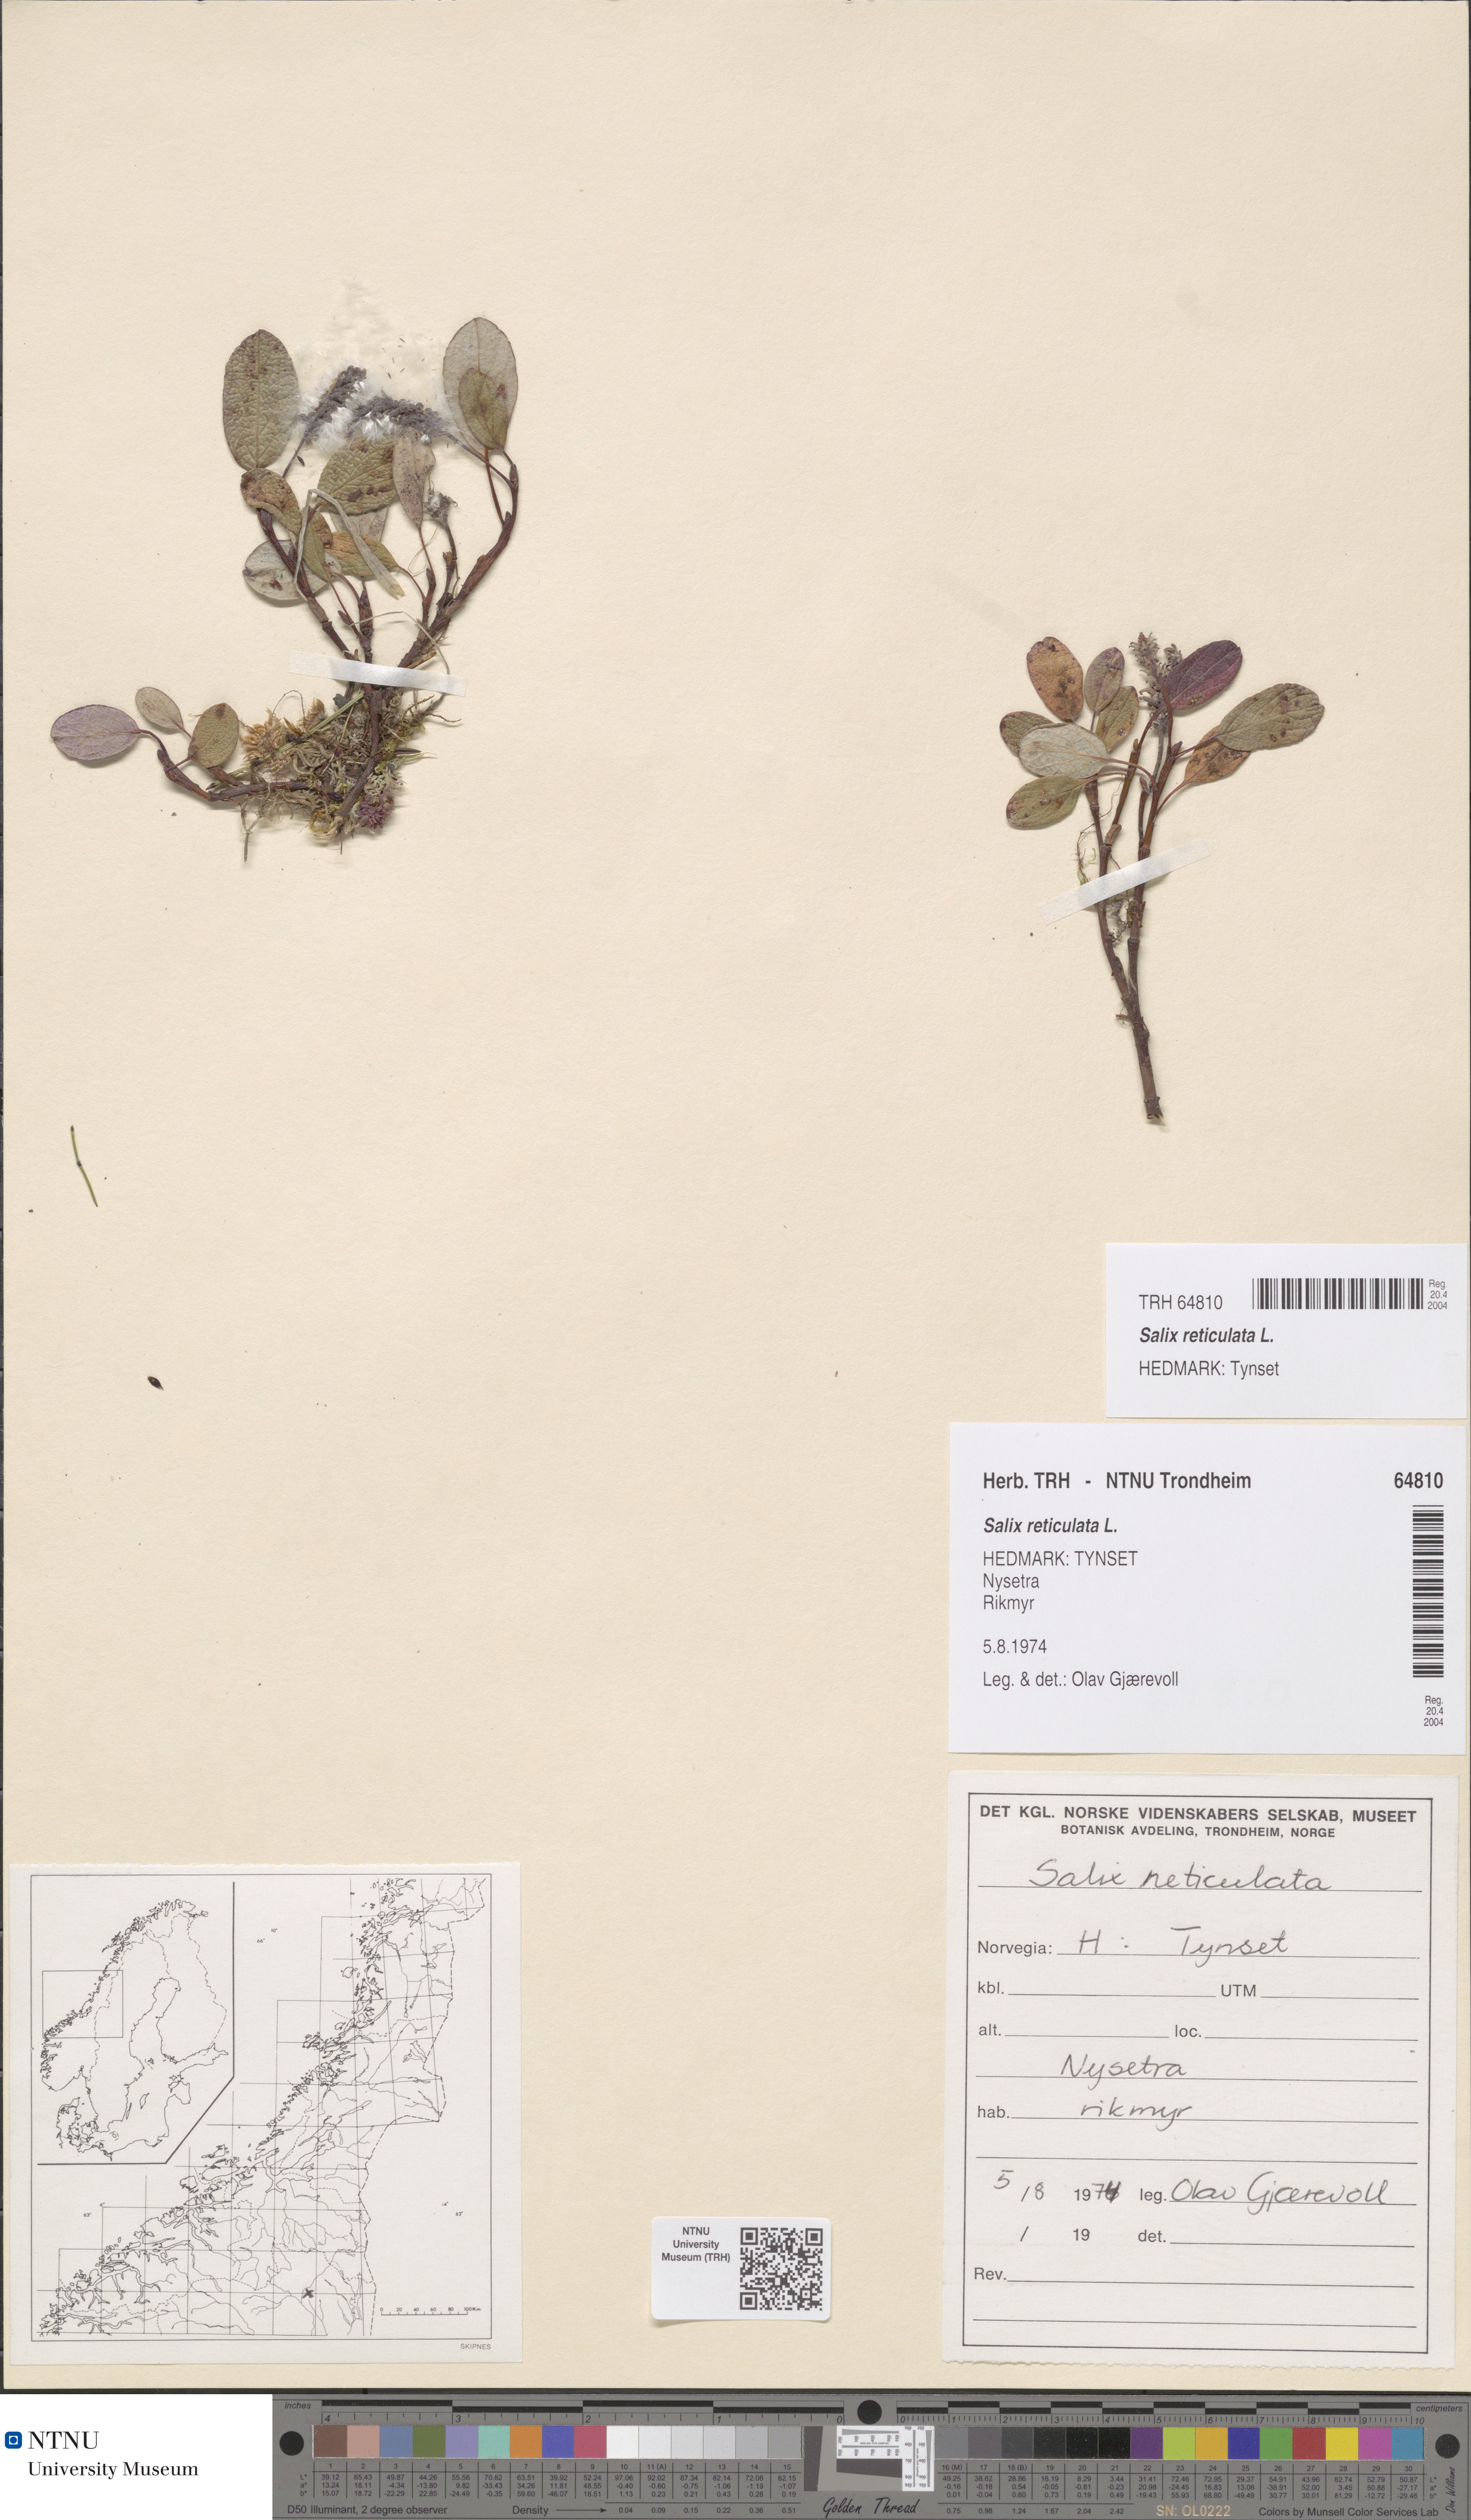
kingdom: Plantae
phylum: Tracheophyta
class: Magnoliopsida
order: Malpighiales
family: Salicaceae
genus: Salix
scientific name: Salix reticulata
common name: Net-leaved willow
